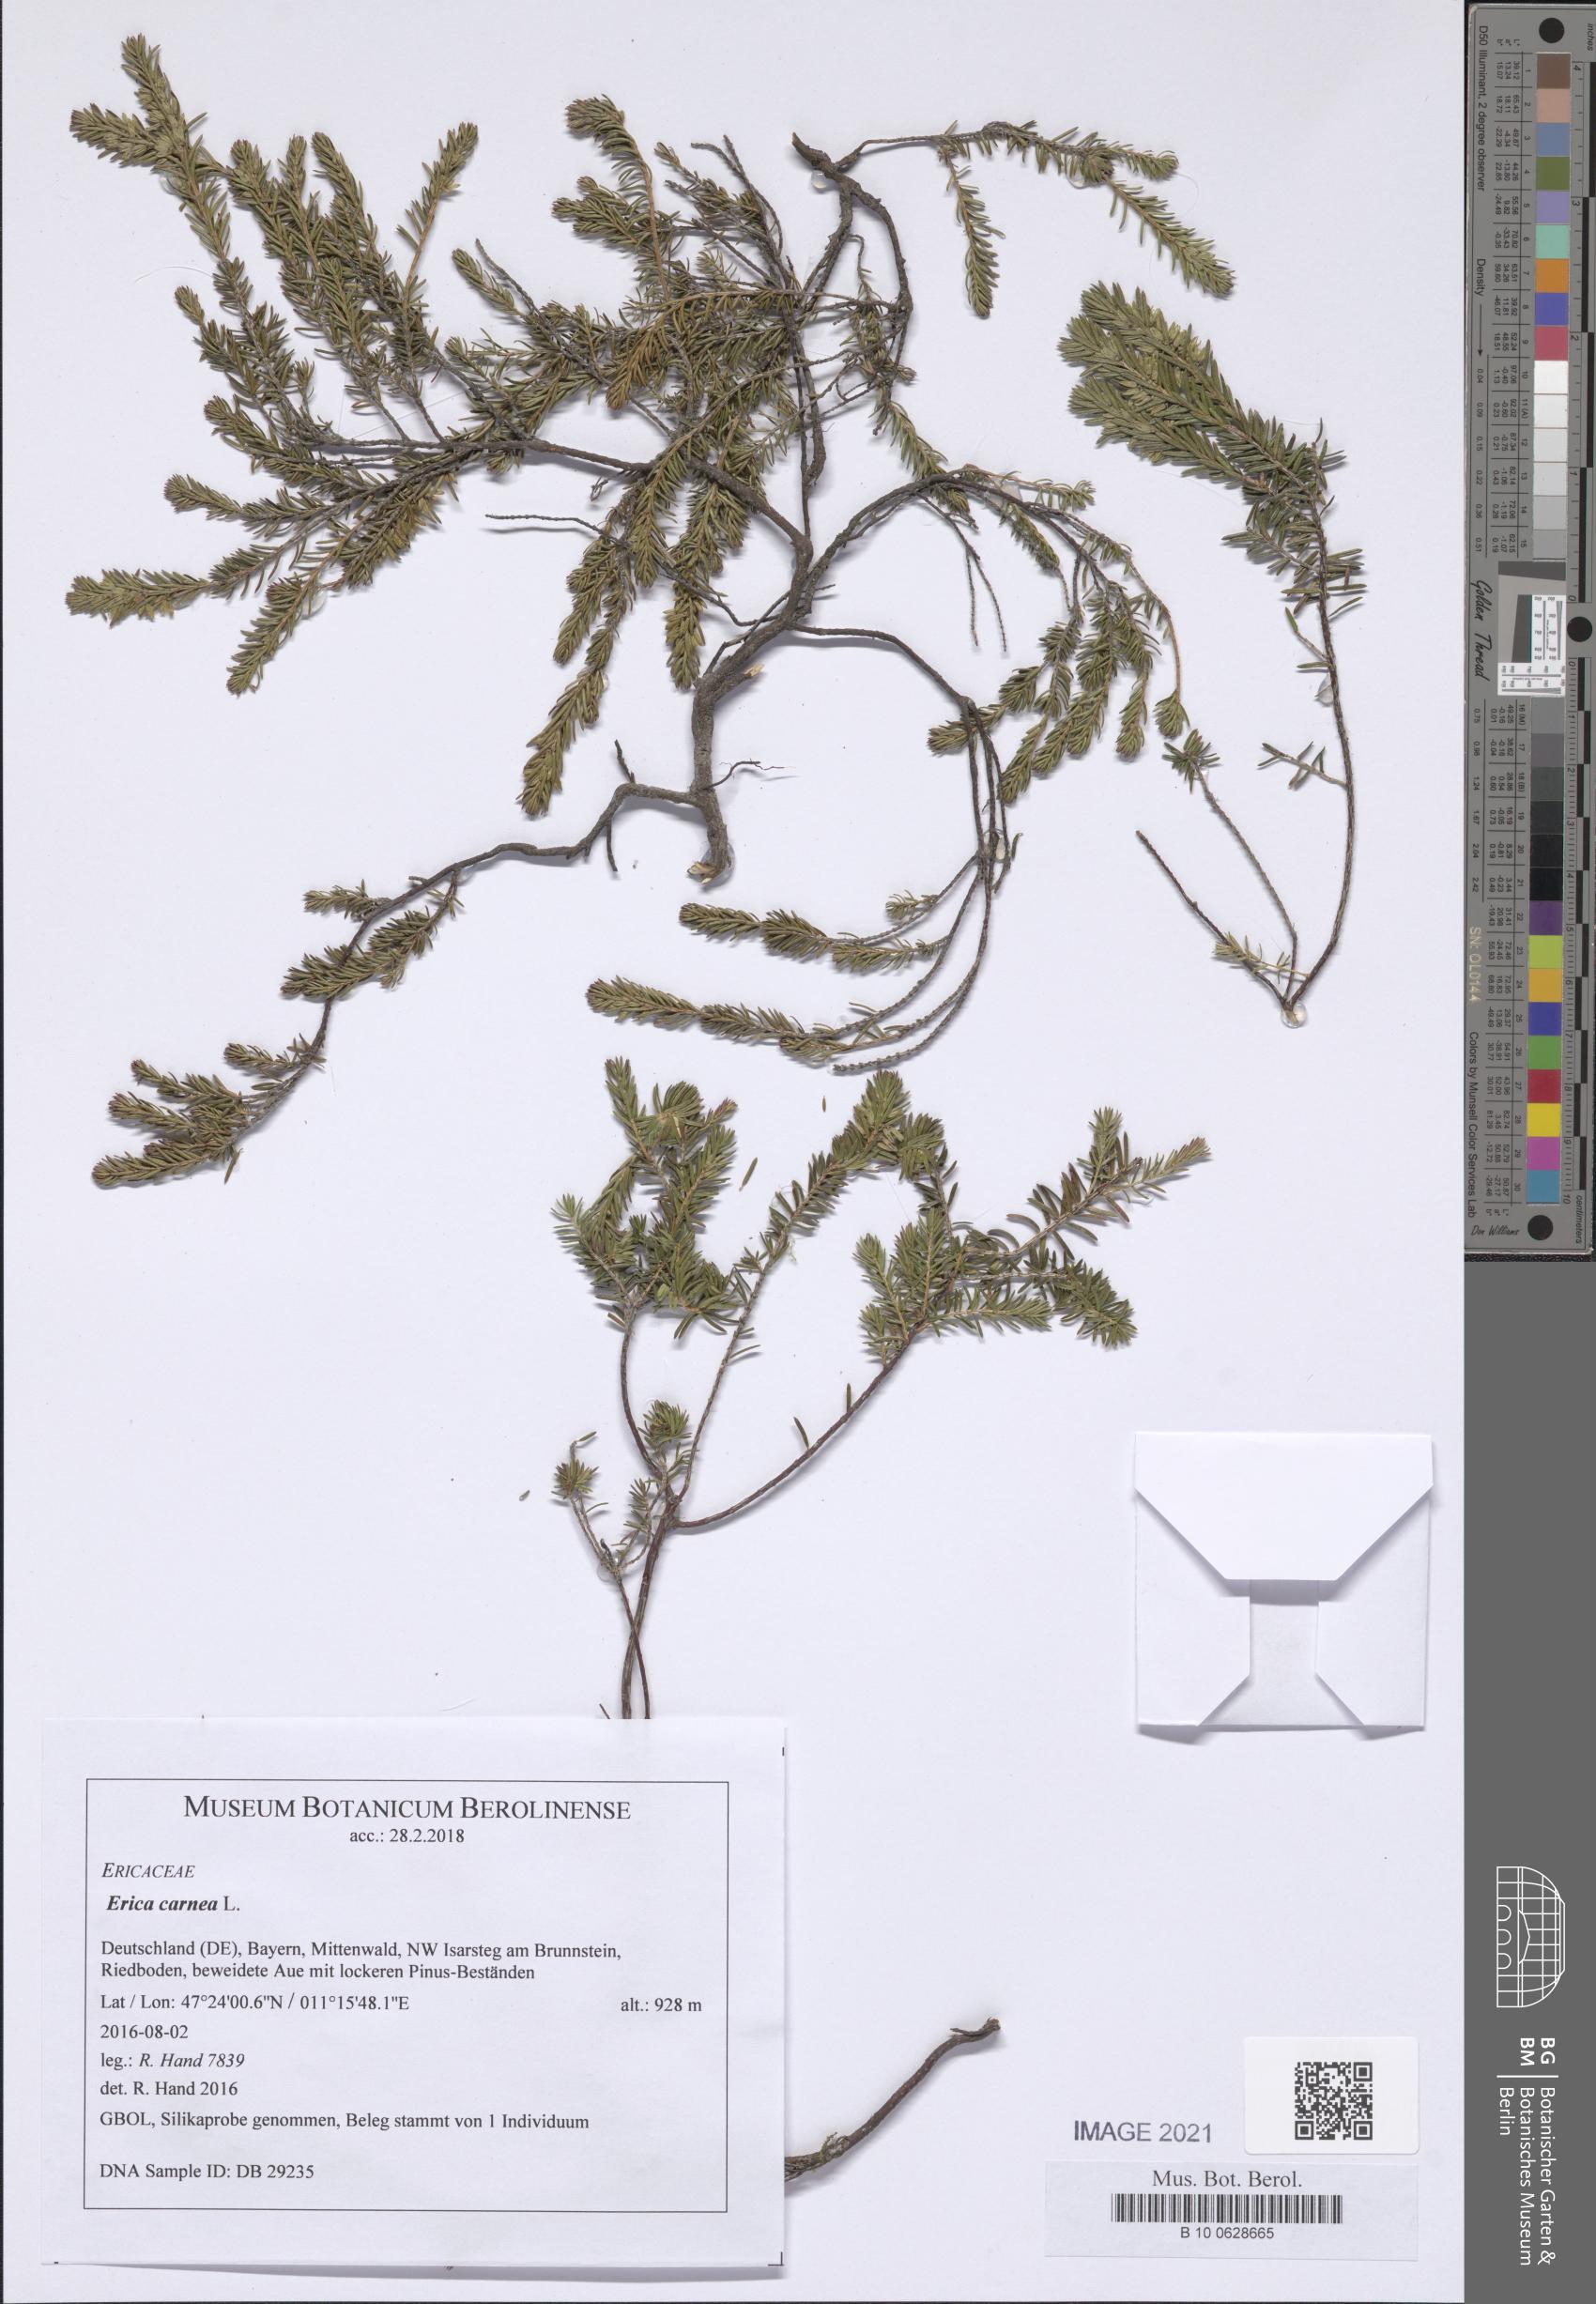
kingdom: Plantae
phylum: Tracheophyta
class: Magnoliopsida
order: Ericales
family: Ericaceae
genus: Erica
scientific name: Erica carnea
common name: Winter heath
